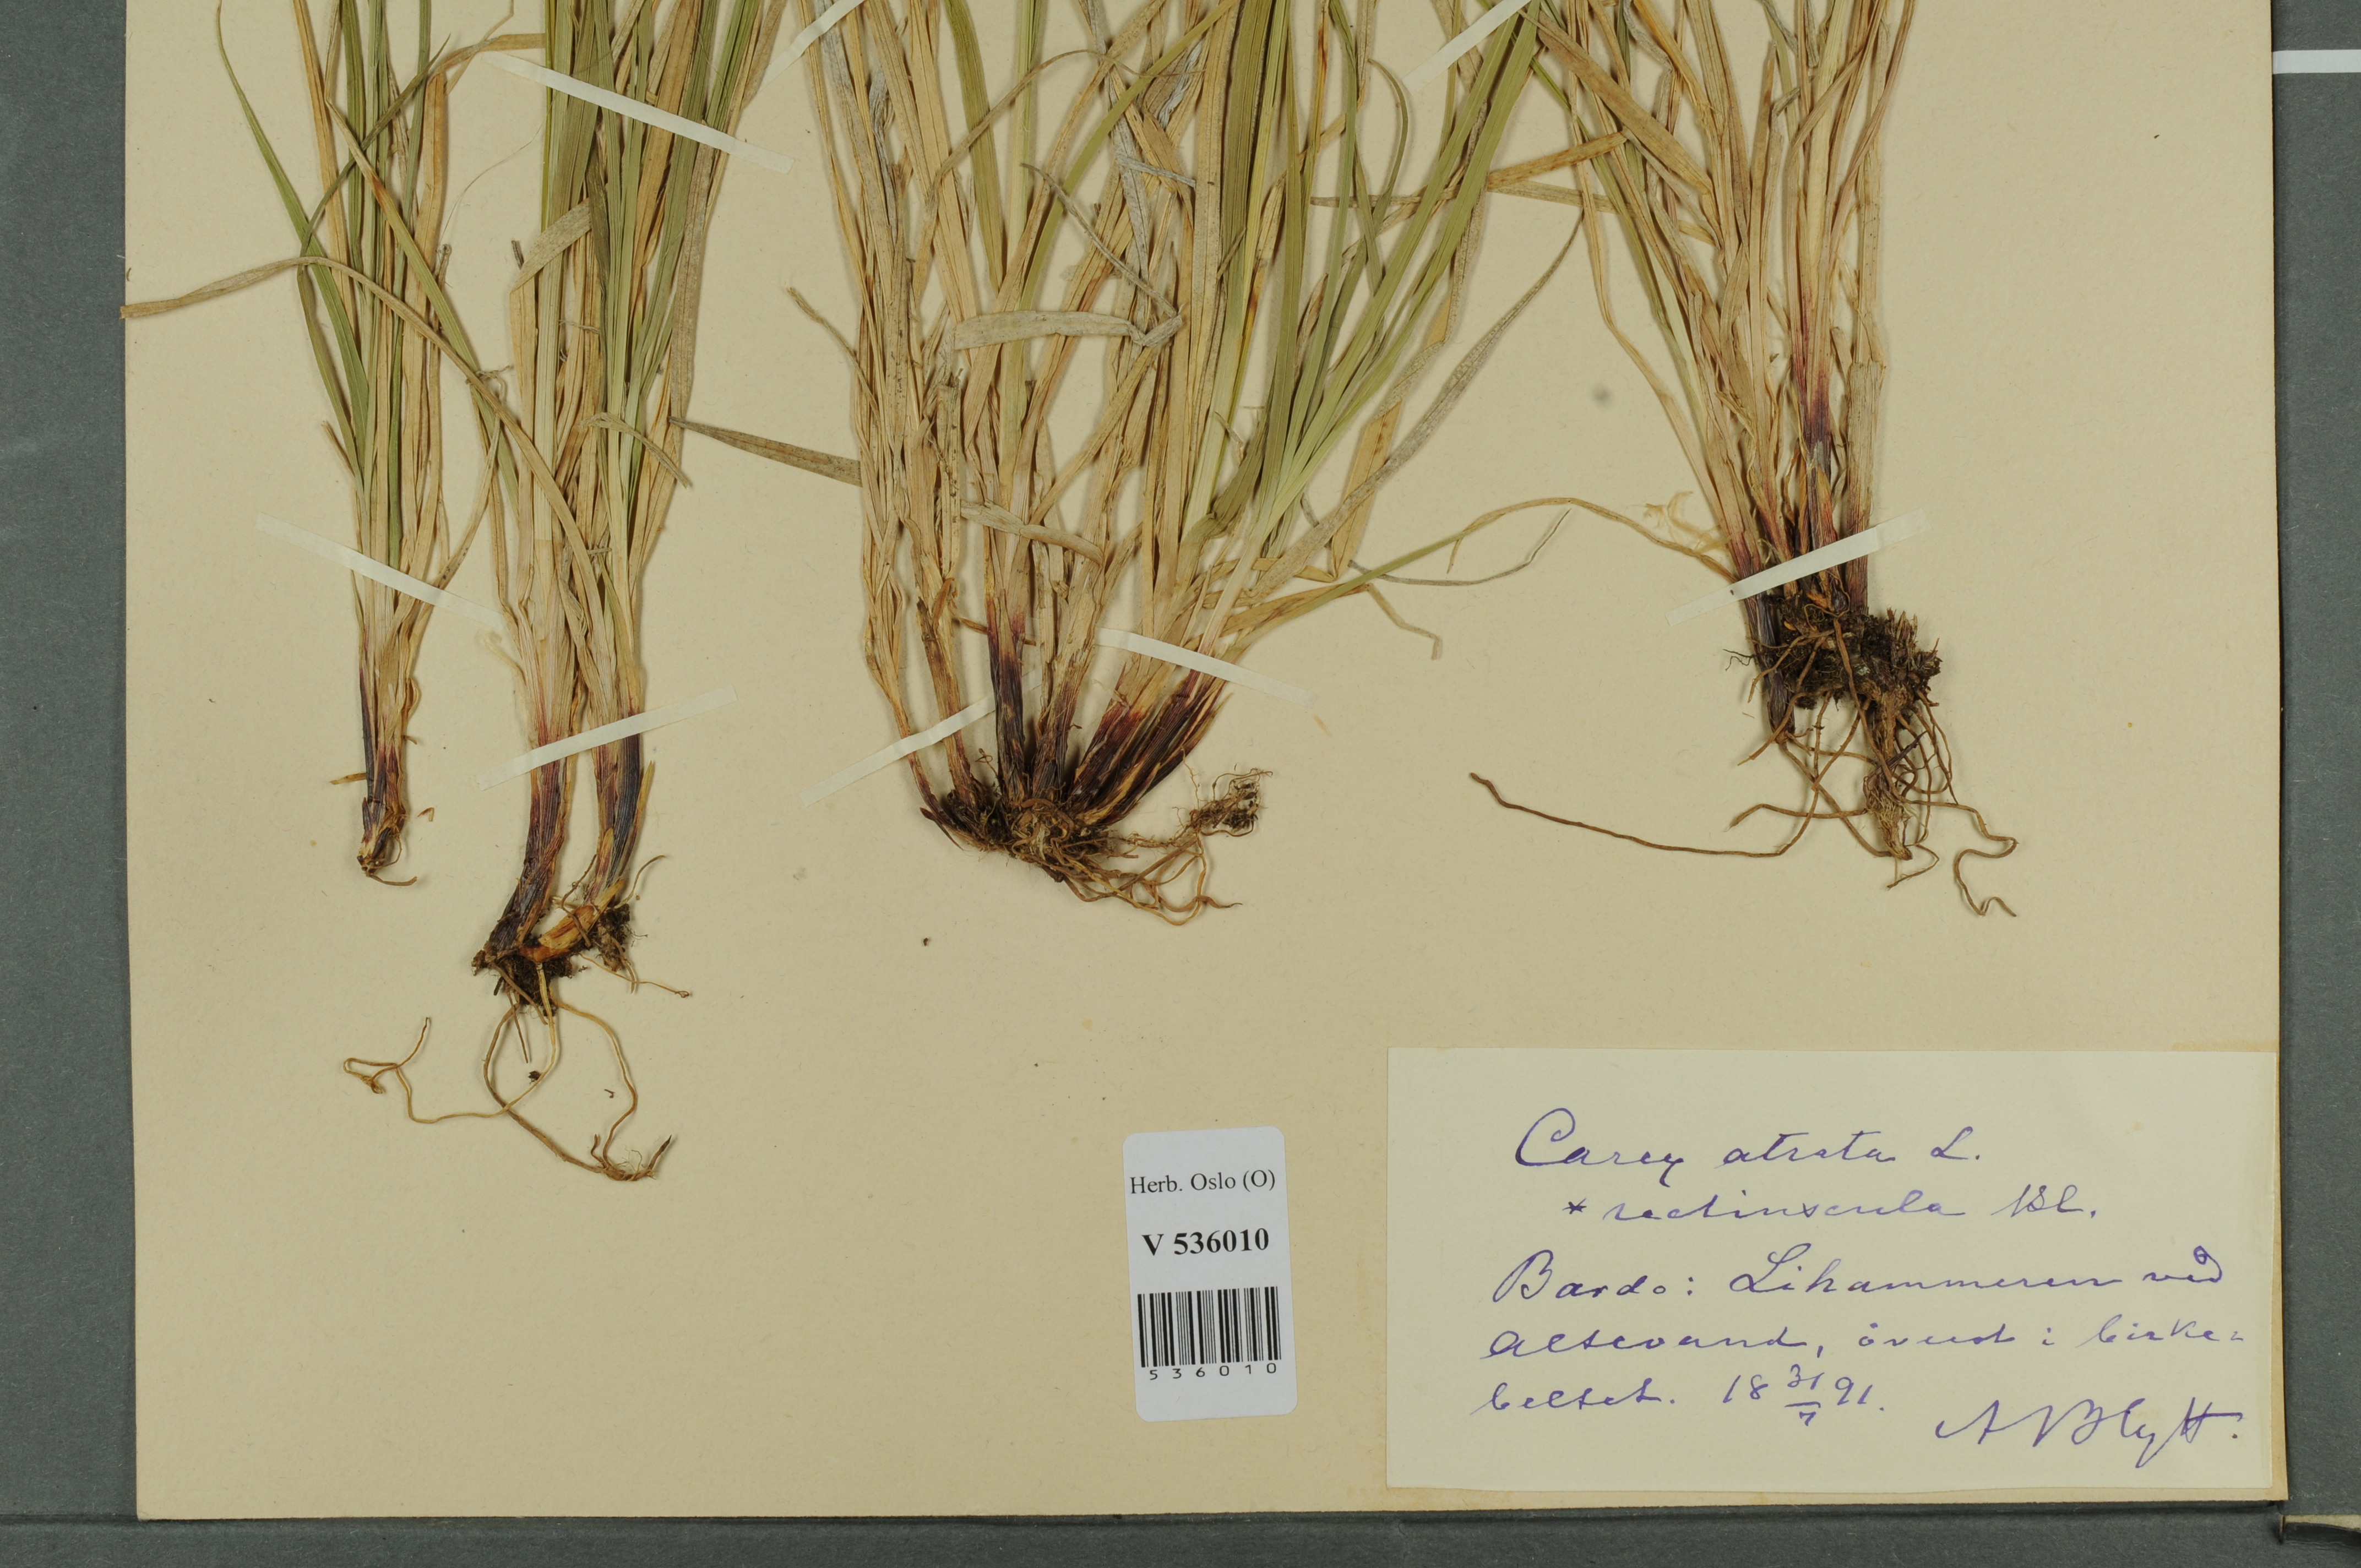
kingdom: Plantae
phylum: Tracheophyta
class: Liliopsida
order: Poales
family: Cyperaceae
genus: Carex
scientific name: Carex
